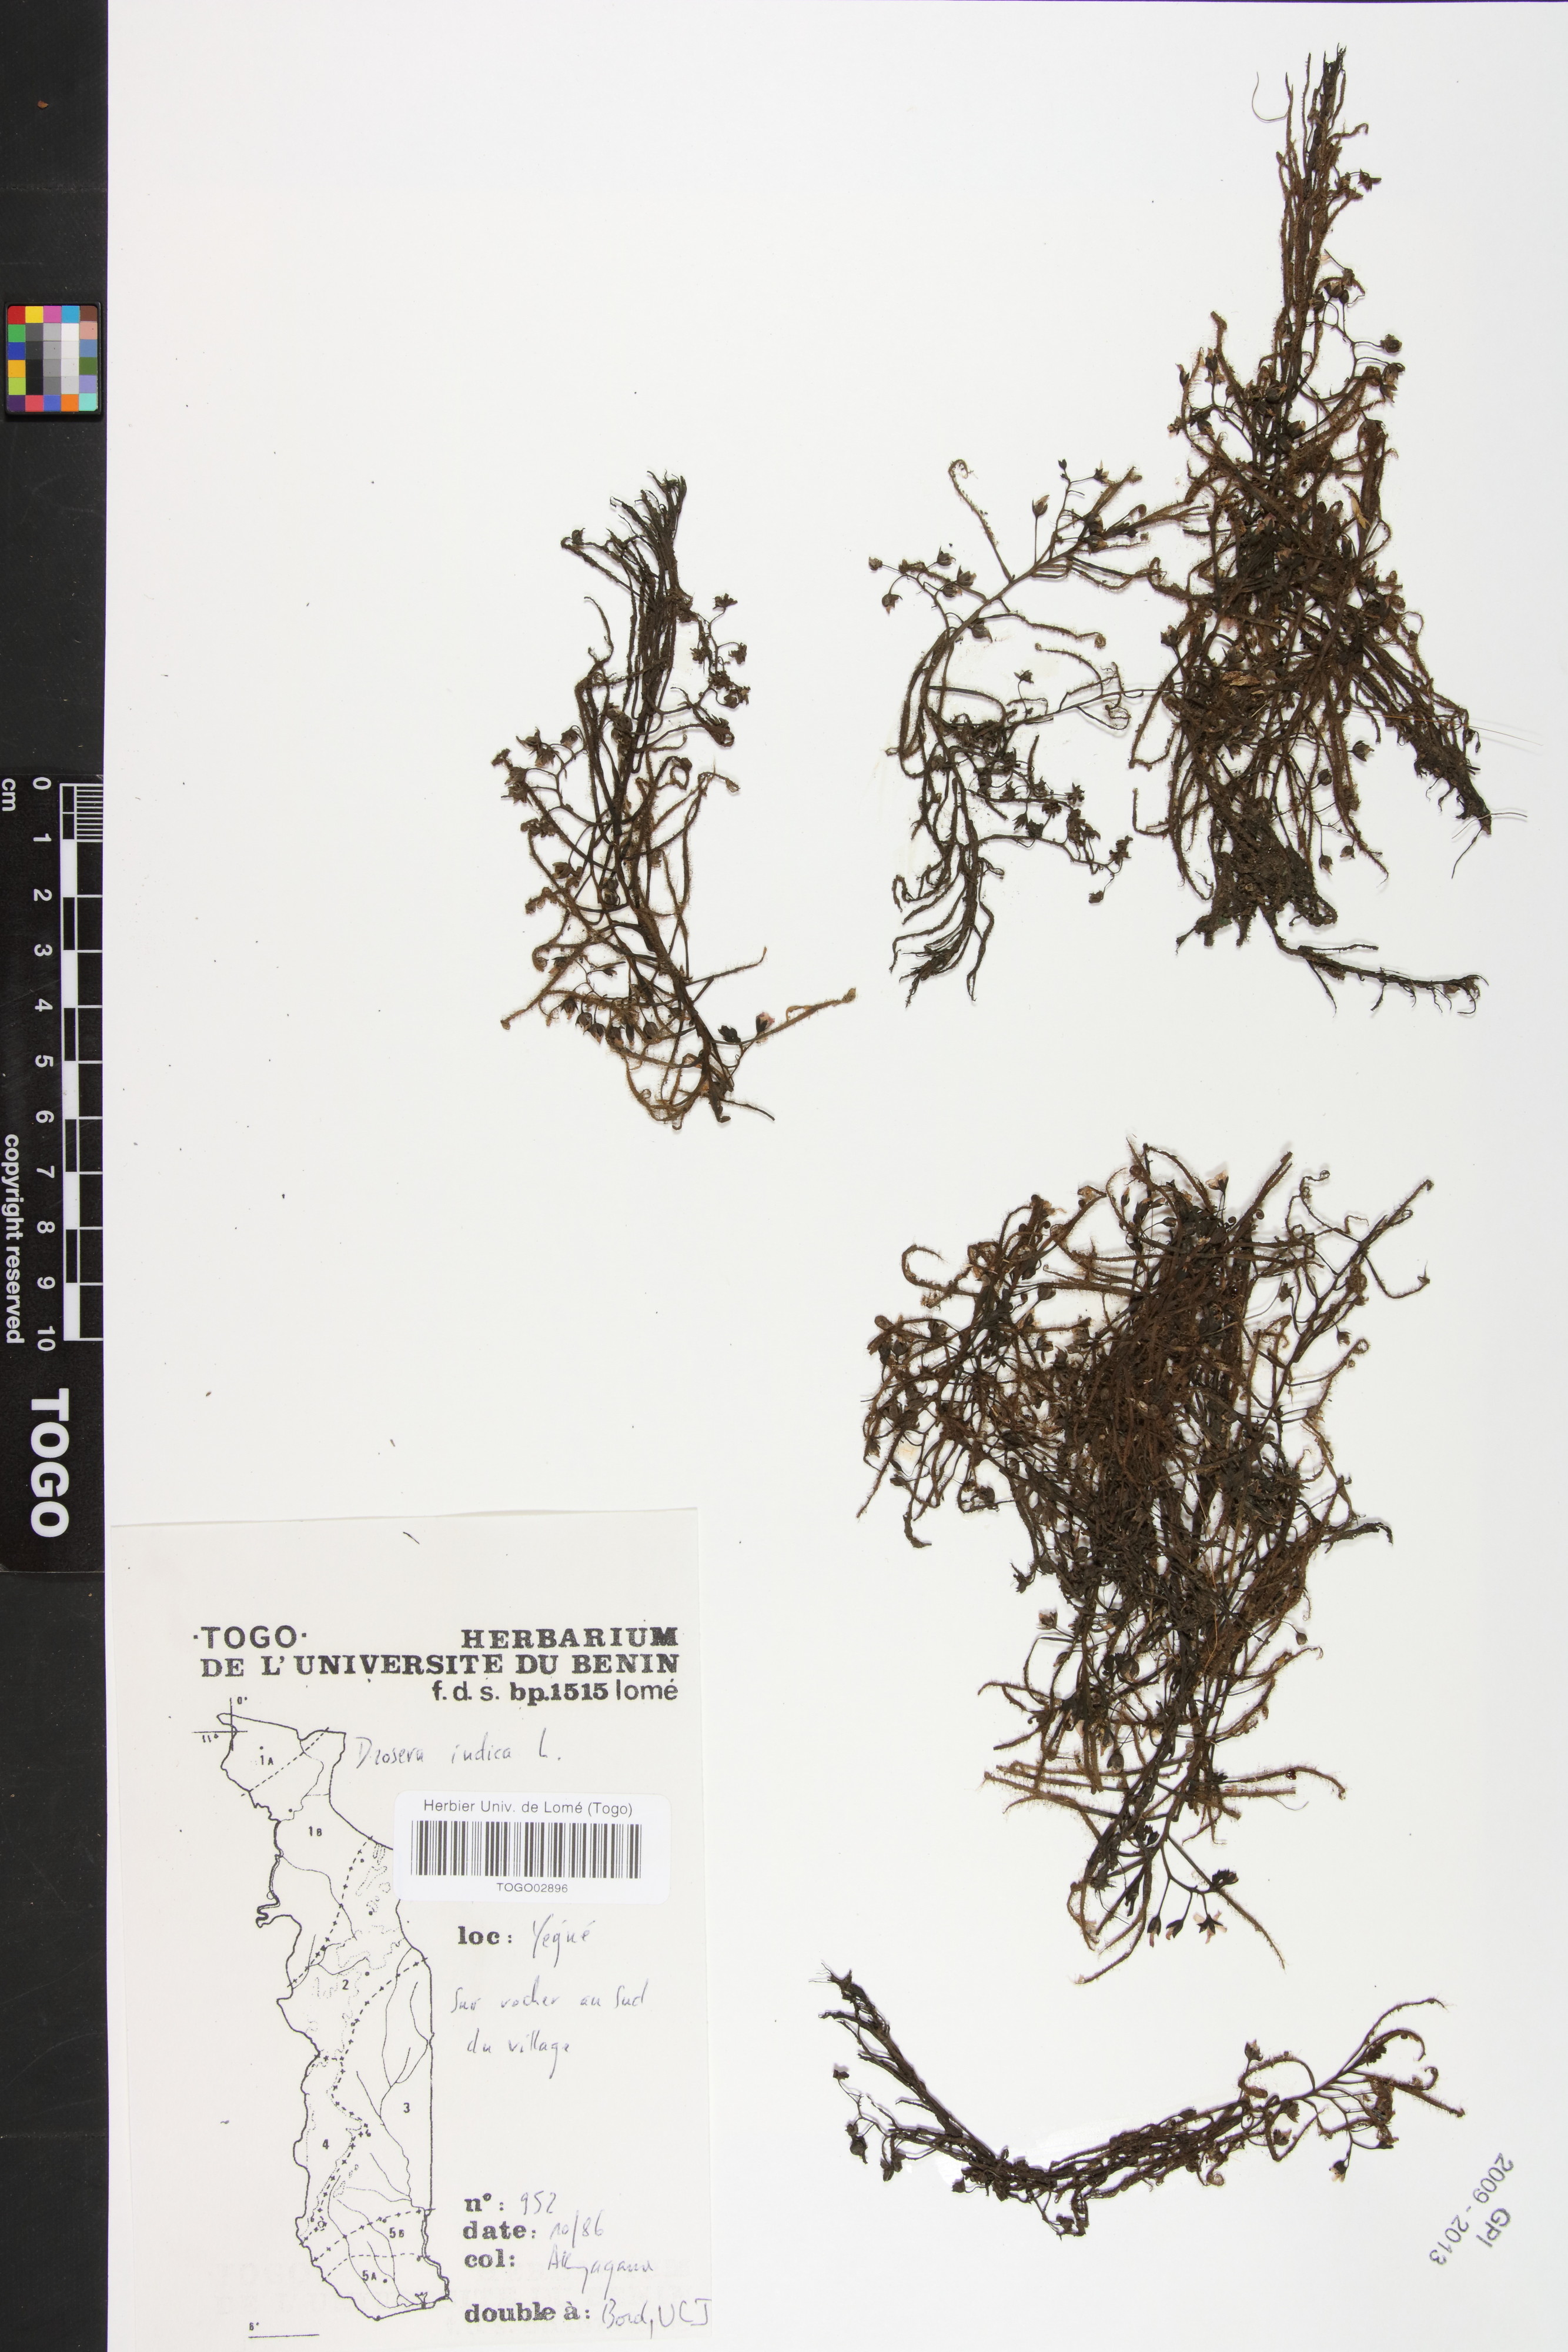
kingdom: Plantae
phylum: Tracheophyta
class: Magnoliopsida
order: Caryophyllales
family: Droseraceae
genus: Drosera
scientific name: Drosera indica
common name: Indian sundew
